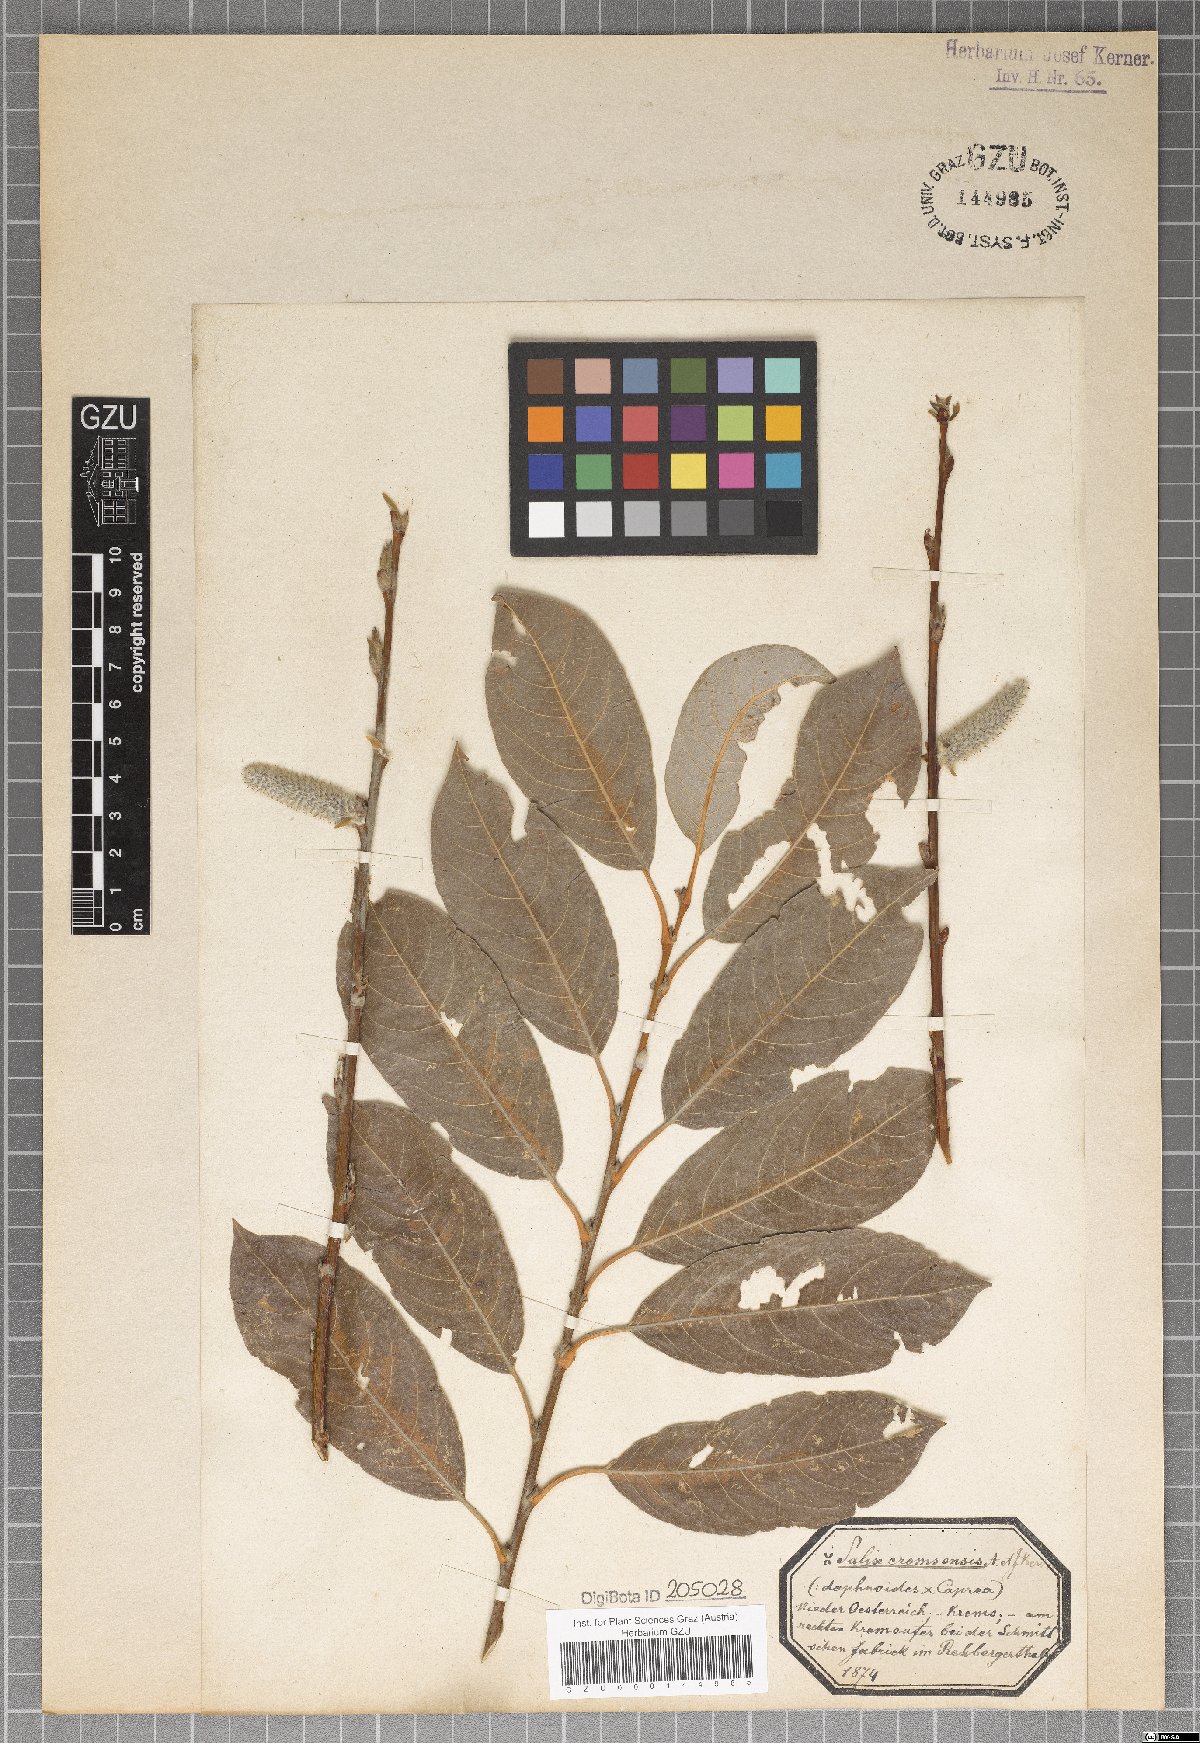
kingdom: Plantae
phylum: Tracheophyta
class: Magnoliopsida
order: Malpighiales
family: Salicaceae
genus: Salix
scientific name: Salix erdingeri
